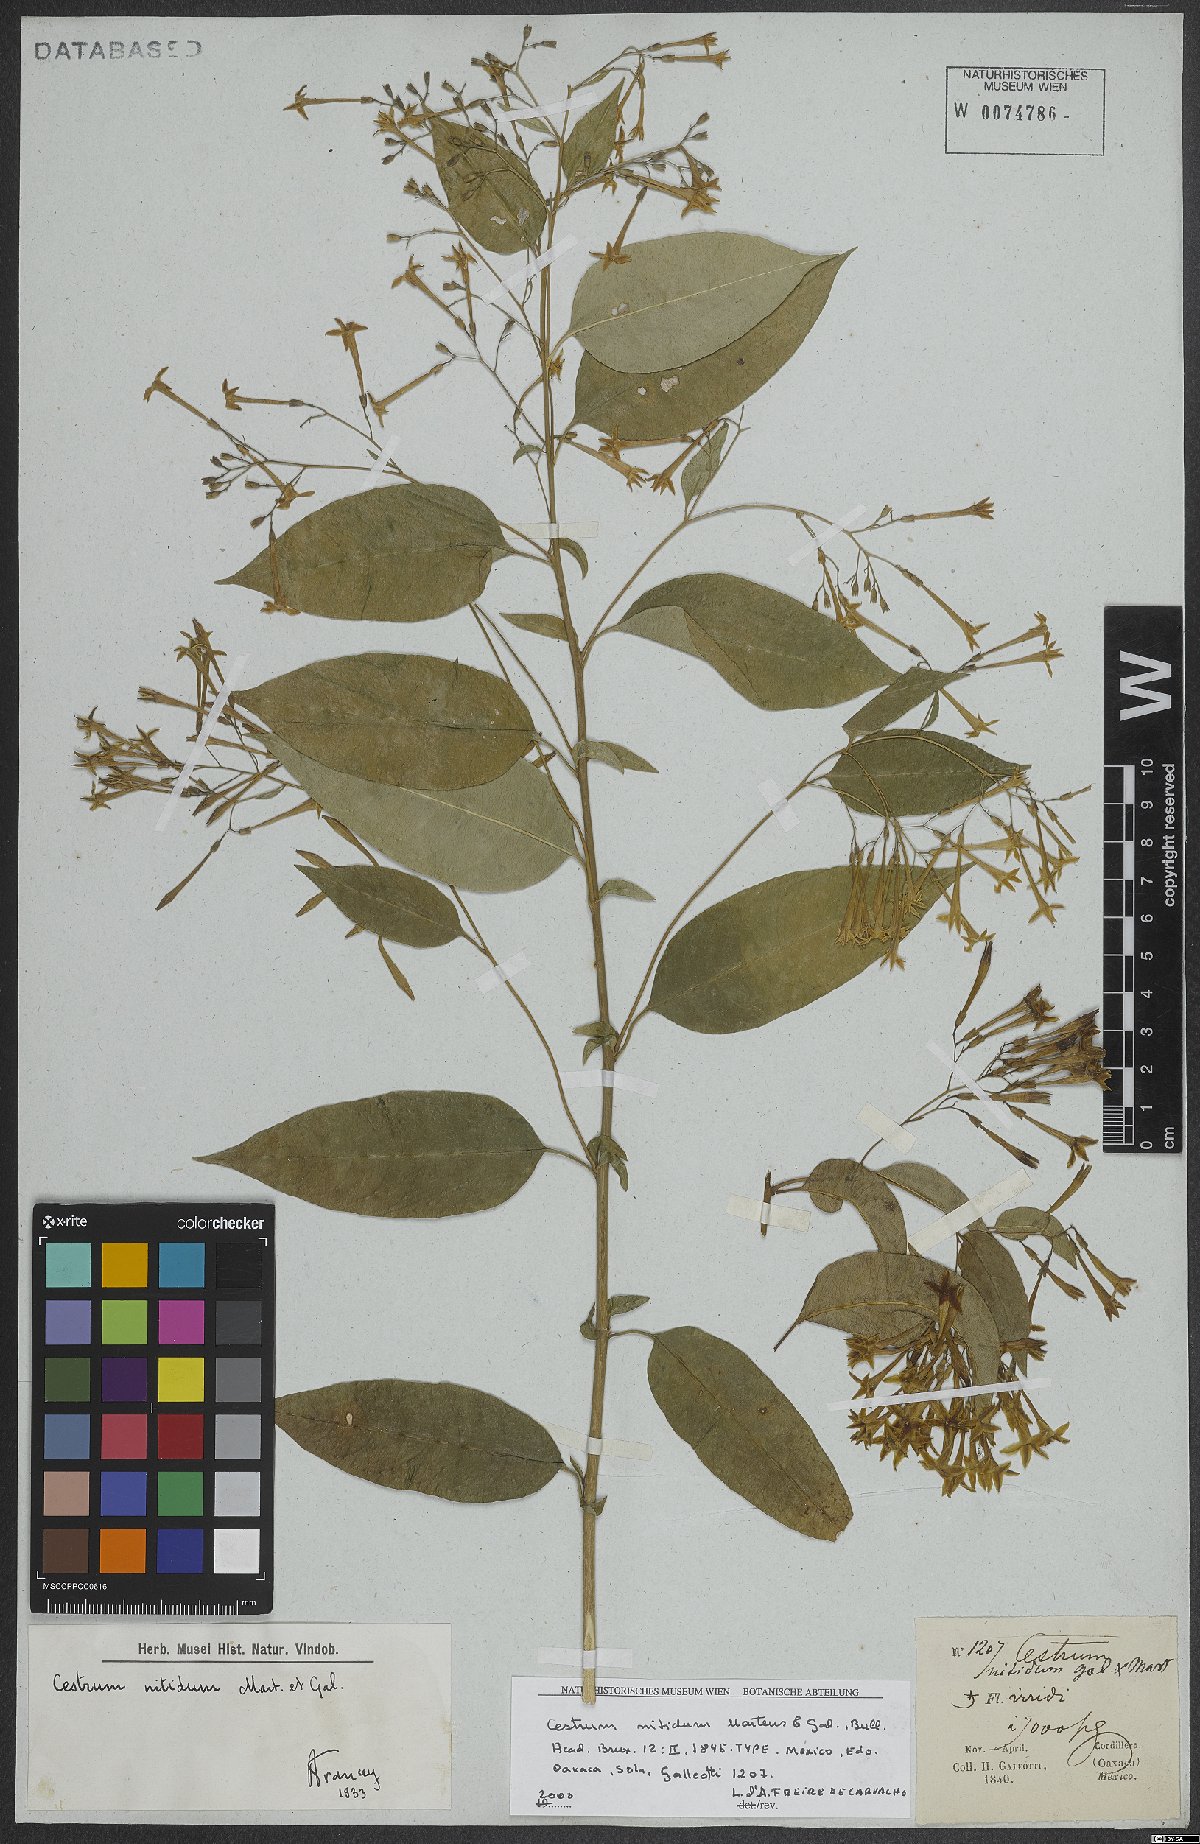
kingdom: Plantae
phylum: Tracheophyta
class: Magnoliopsida
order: Solanales
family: Solanaceae
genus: Cestrum
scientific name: Cestrum nitidum
